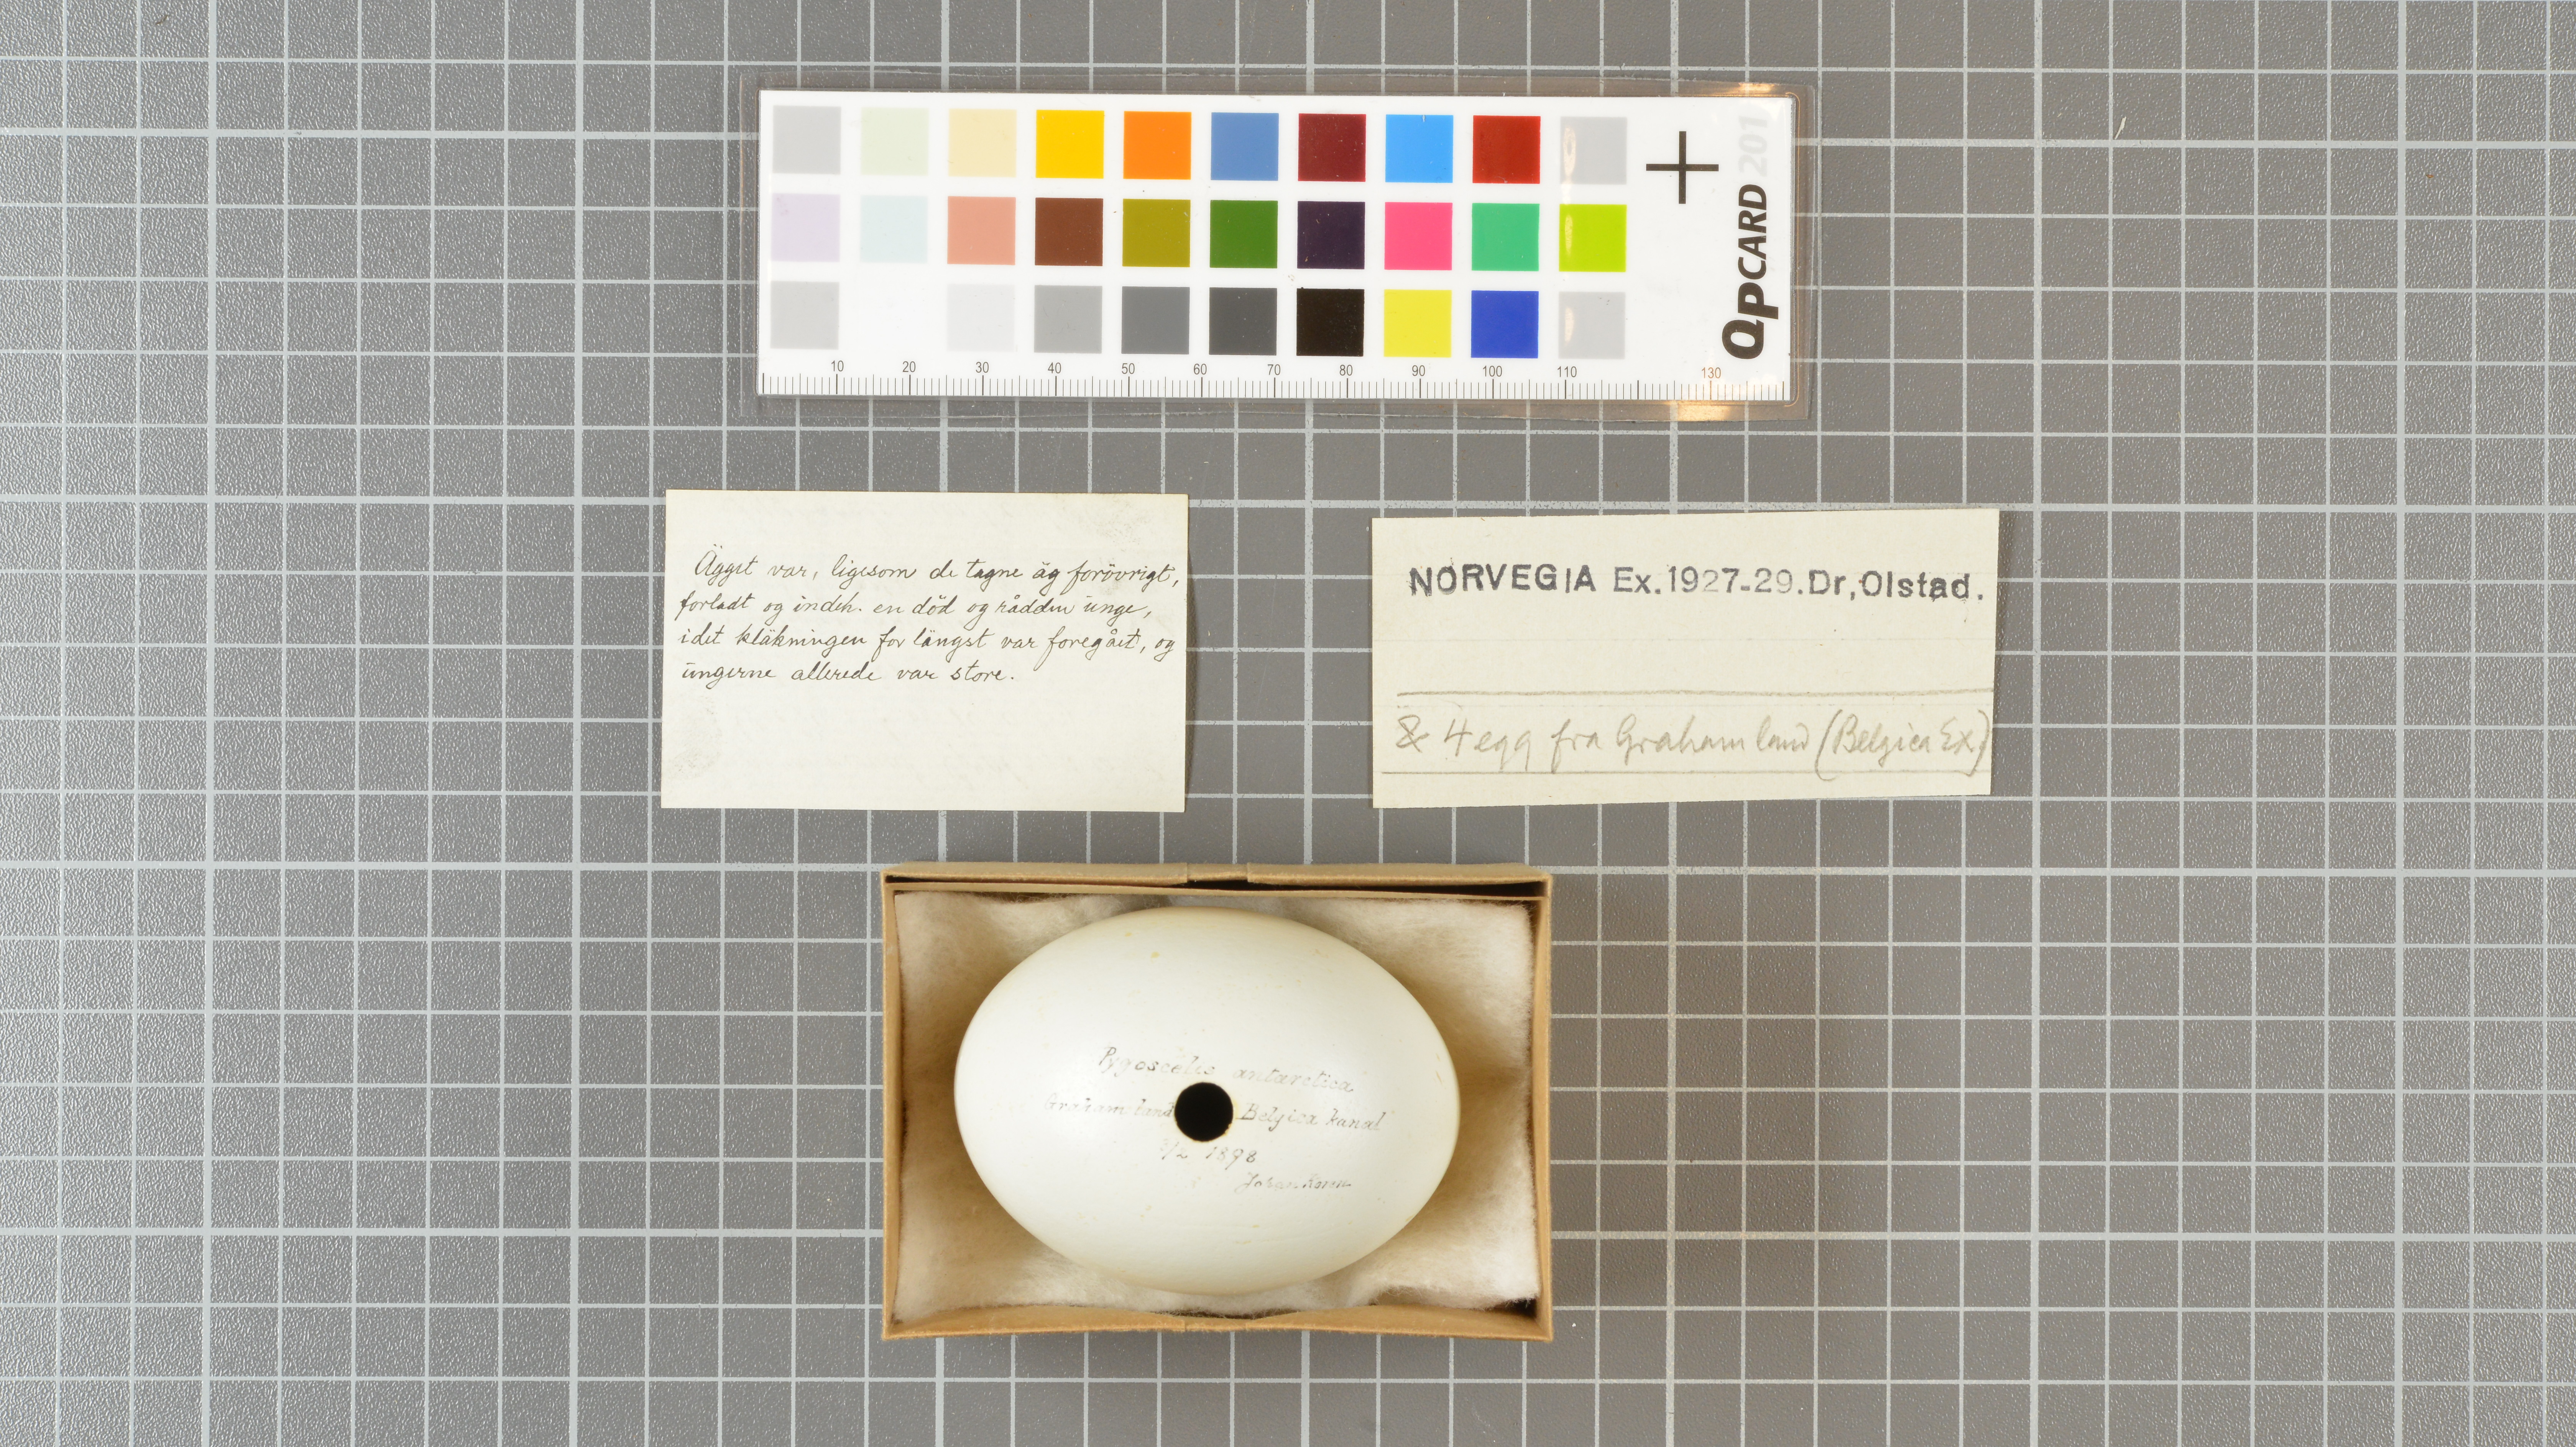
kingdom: Animalia
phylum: Chordata
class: Aves
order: Sphenisciformes
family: Spheniscidae
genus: Pygoscelis
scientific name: Pygoscelis antarcticus
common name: Chinstrap penguin
